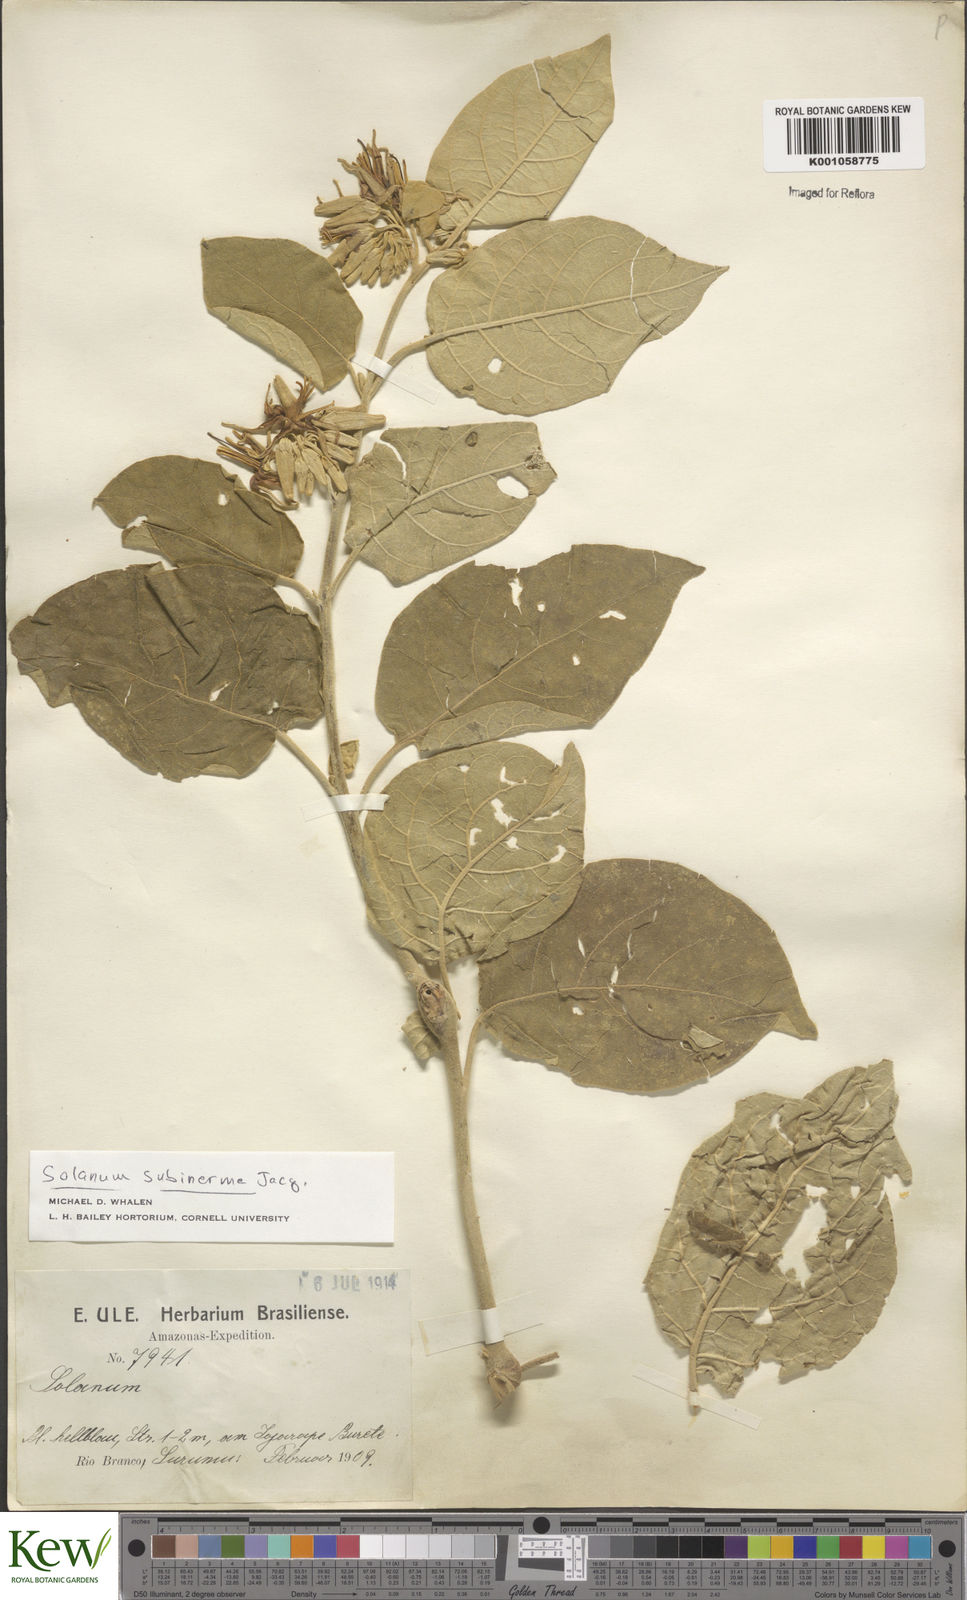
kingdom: Plantae
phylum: Tracheophyta
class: Magnoliopsida
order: Solanales
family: Solanaceae
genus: Solanum
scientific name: Solanum subinerme
